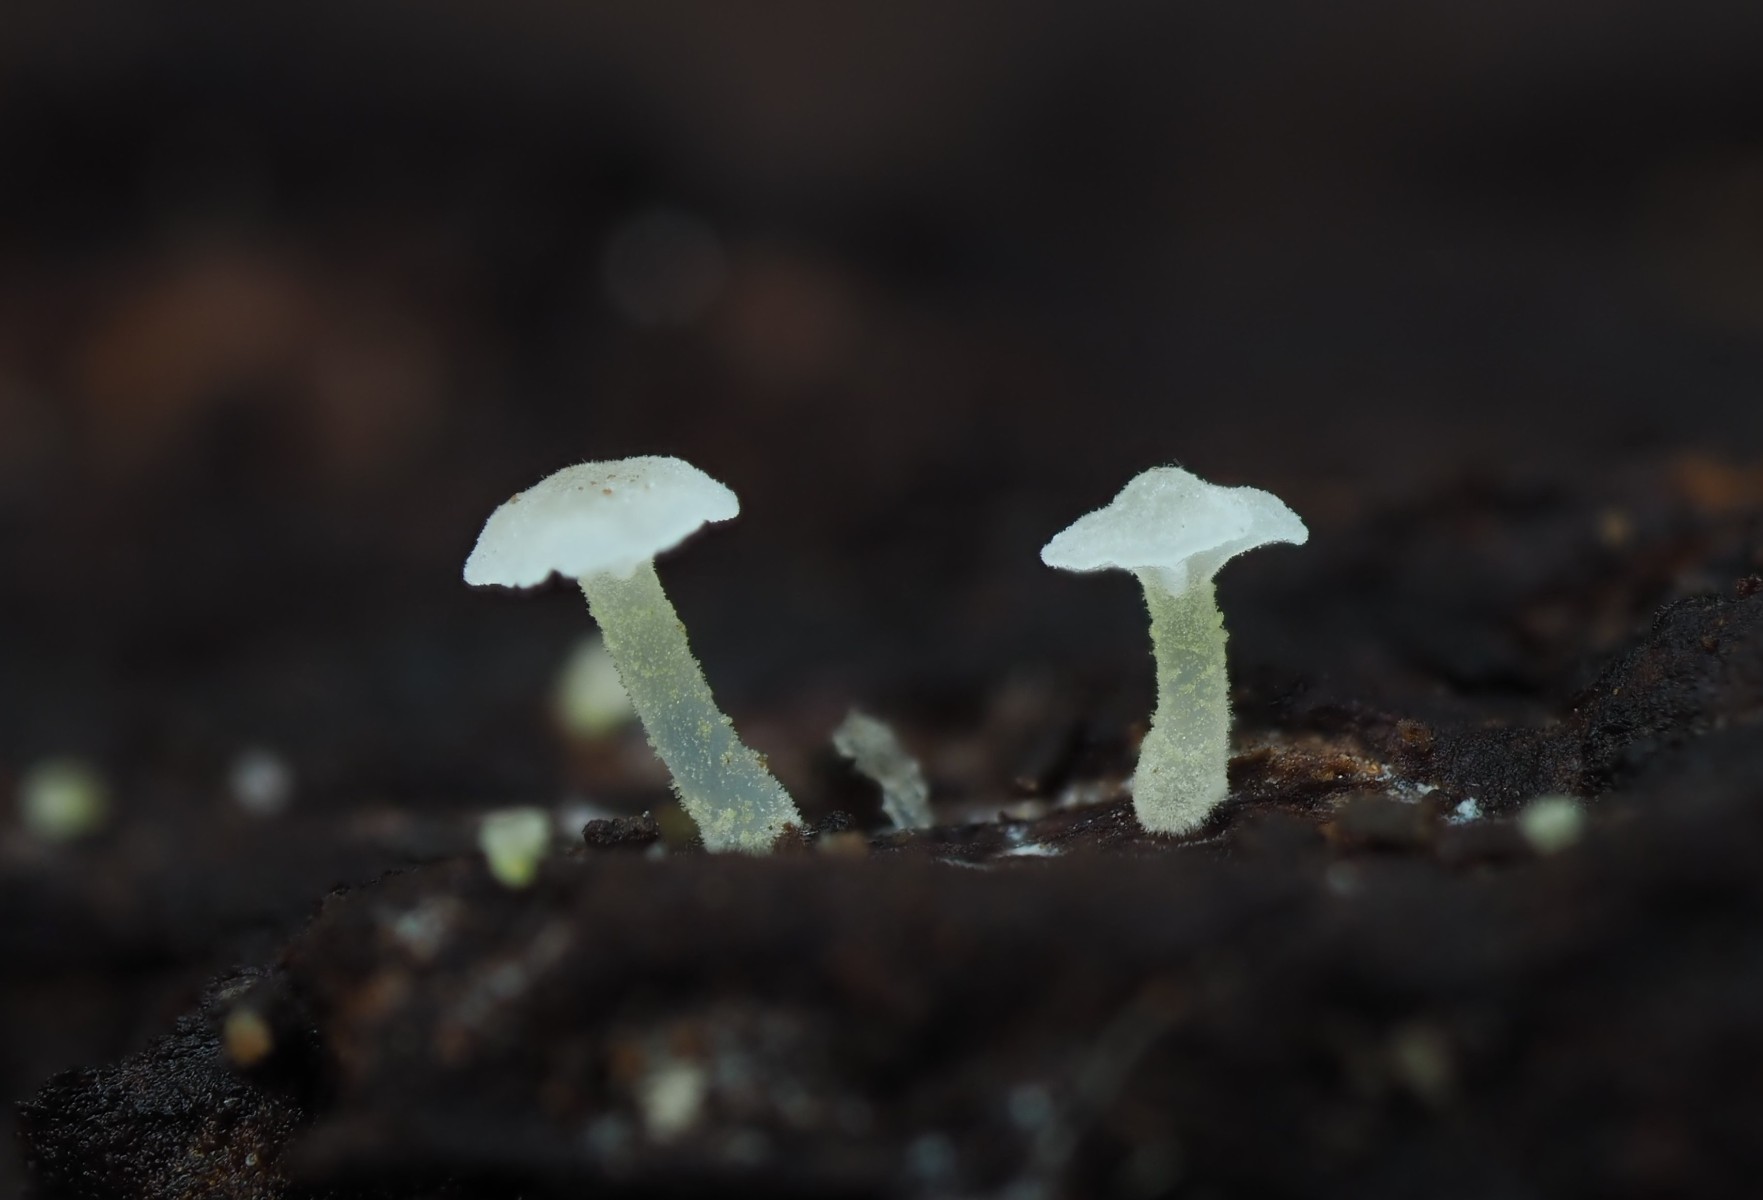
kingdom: Fungi
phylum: Basidiomycota
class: Agaricomycetes
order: Agaricales
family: Porotheleaceae
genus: Phloeomana
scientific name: Phloeomana speirea
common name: kvist-huesvamp
